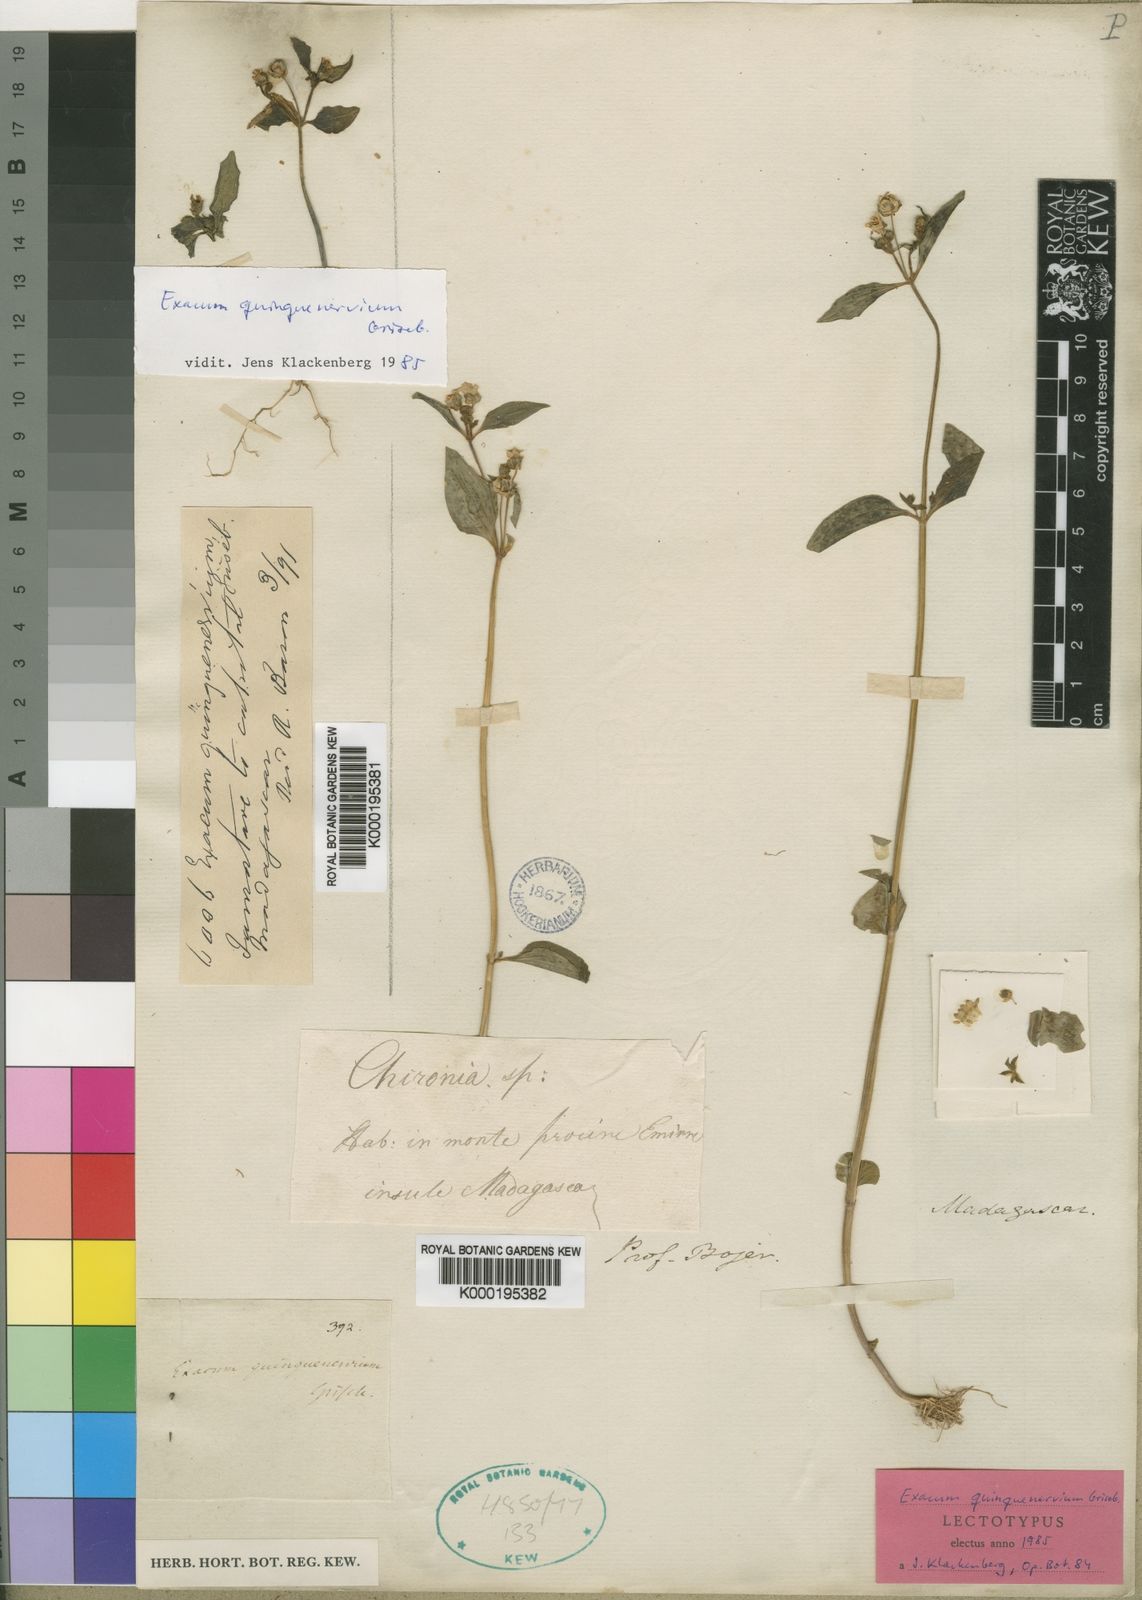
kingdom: Plantae
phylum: Tracheophyta
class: Magnoliopsida
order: Gentianales
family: Gentianaceae
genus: Exacum
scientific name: Exacum quinquenervium
